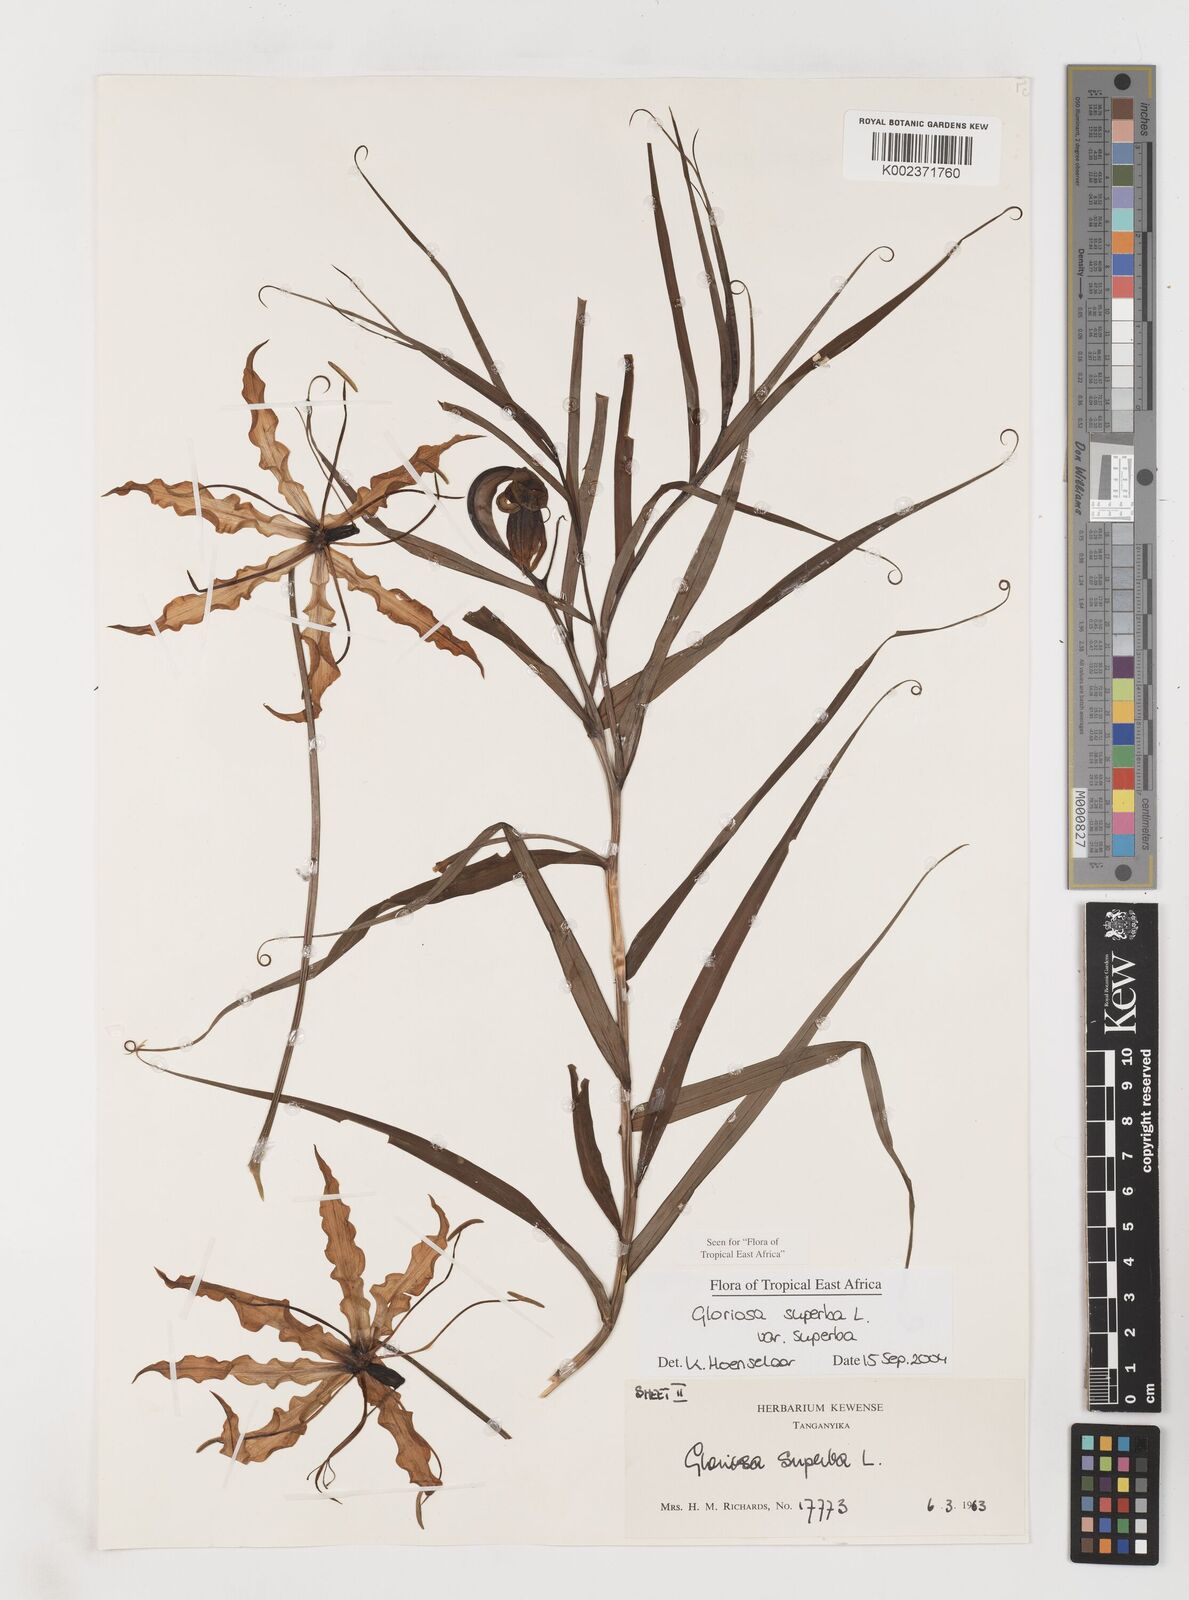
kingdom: Plantae
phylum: Tracheophyta
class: Liliopsida
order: Liliales
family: Colchicaceae
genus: Gloriosa
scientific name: Gloriosa superba
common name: Flame lily
